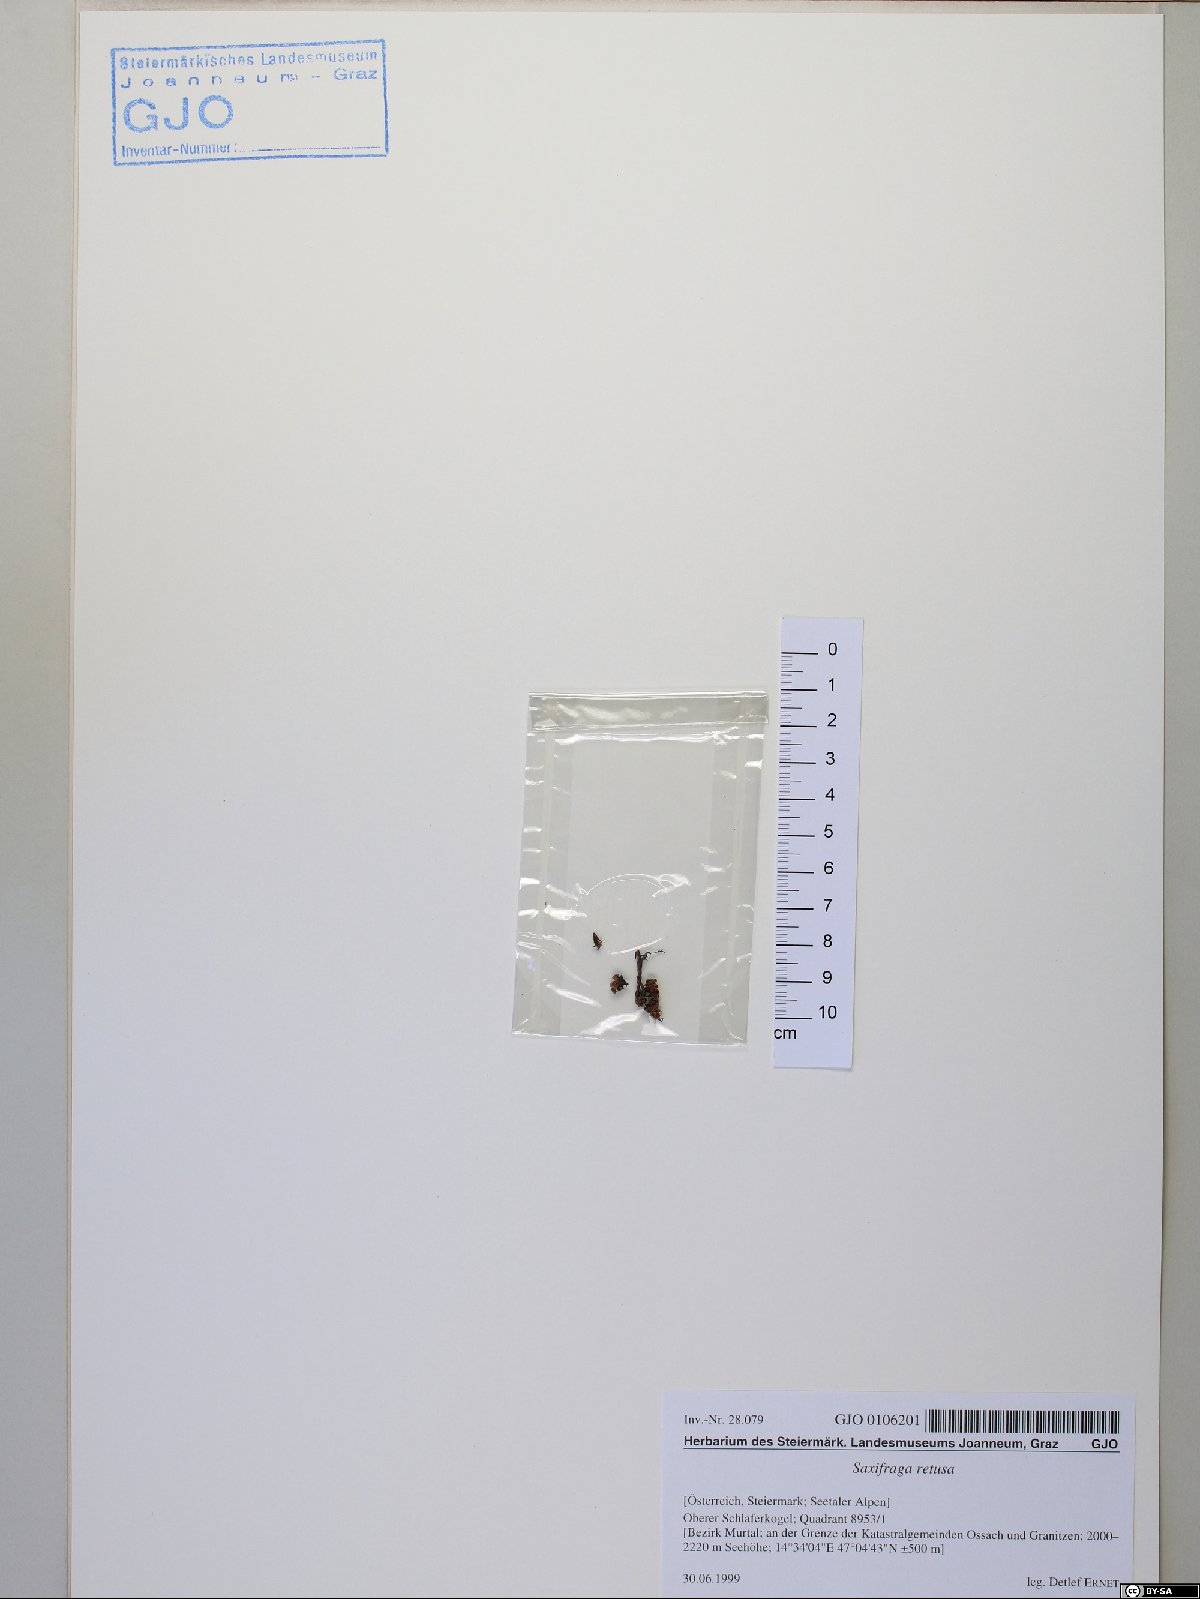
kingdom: Plantae
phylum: Tracheophyta
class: Magnoliopsida
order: Saxifragales
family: Saxifragaceae
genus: Saxifraga
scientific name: Saxifraga retusa
